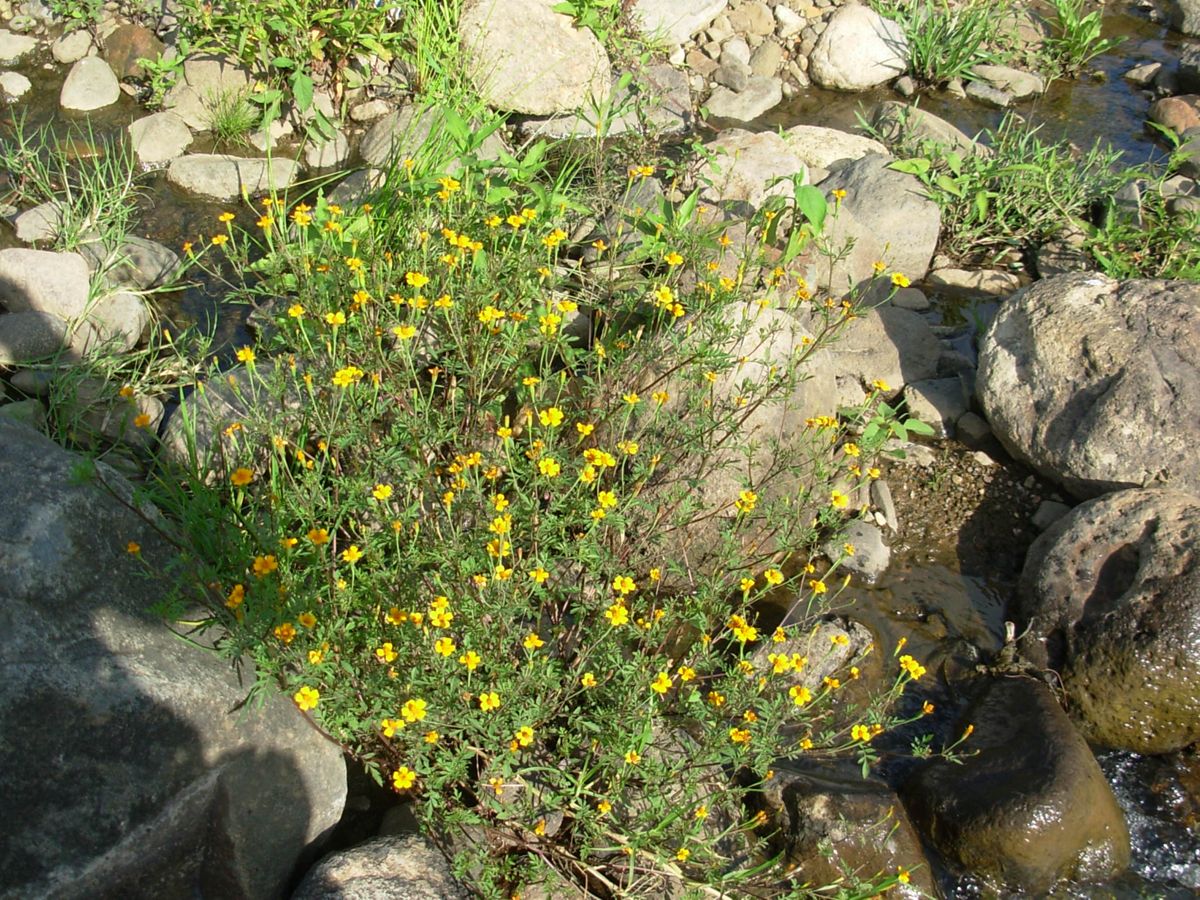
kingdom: Plantae
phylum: Tracheophyta
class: Magnoliopsida
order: Asterales
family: Asteraceae
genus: Tagetes
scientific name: Tagetes tenuifolia
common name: Signet marigold
